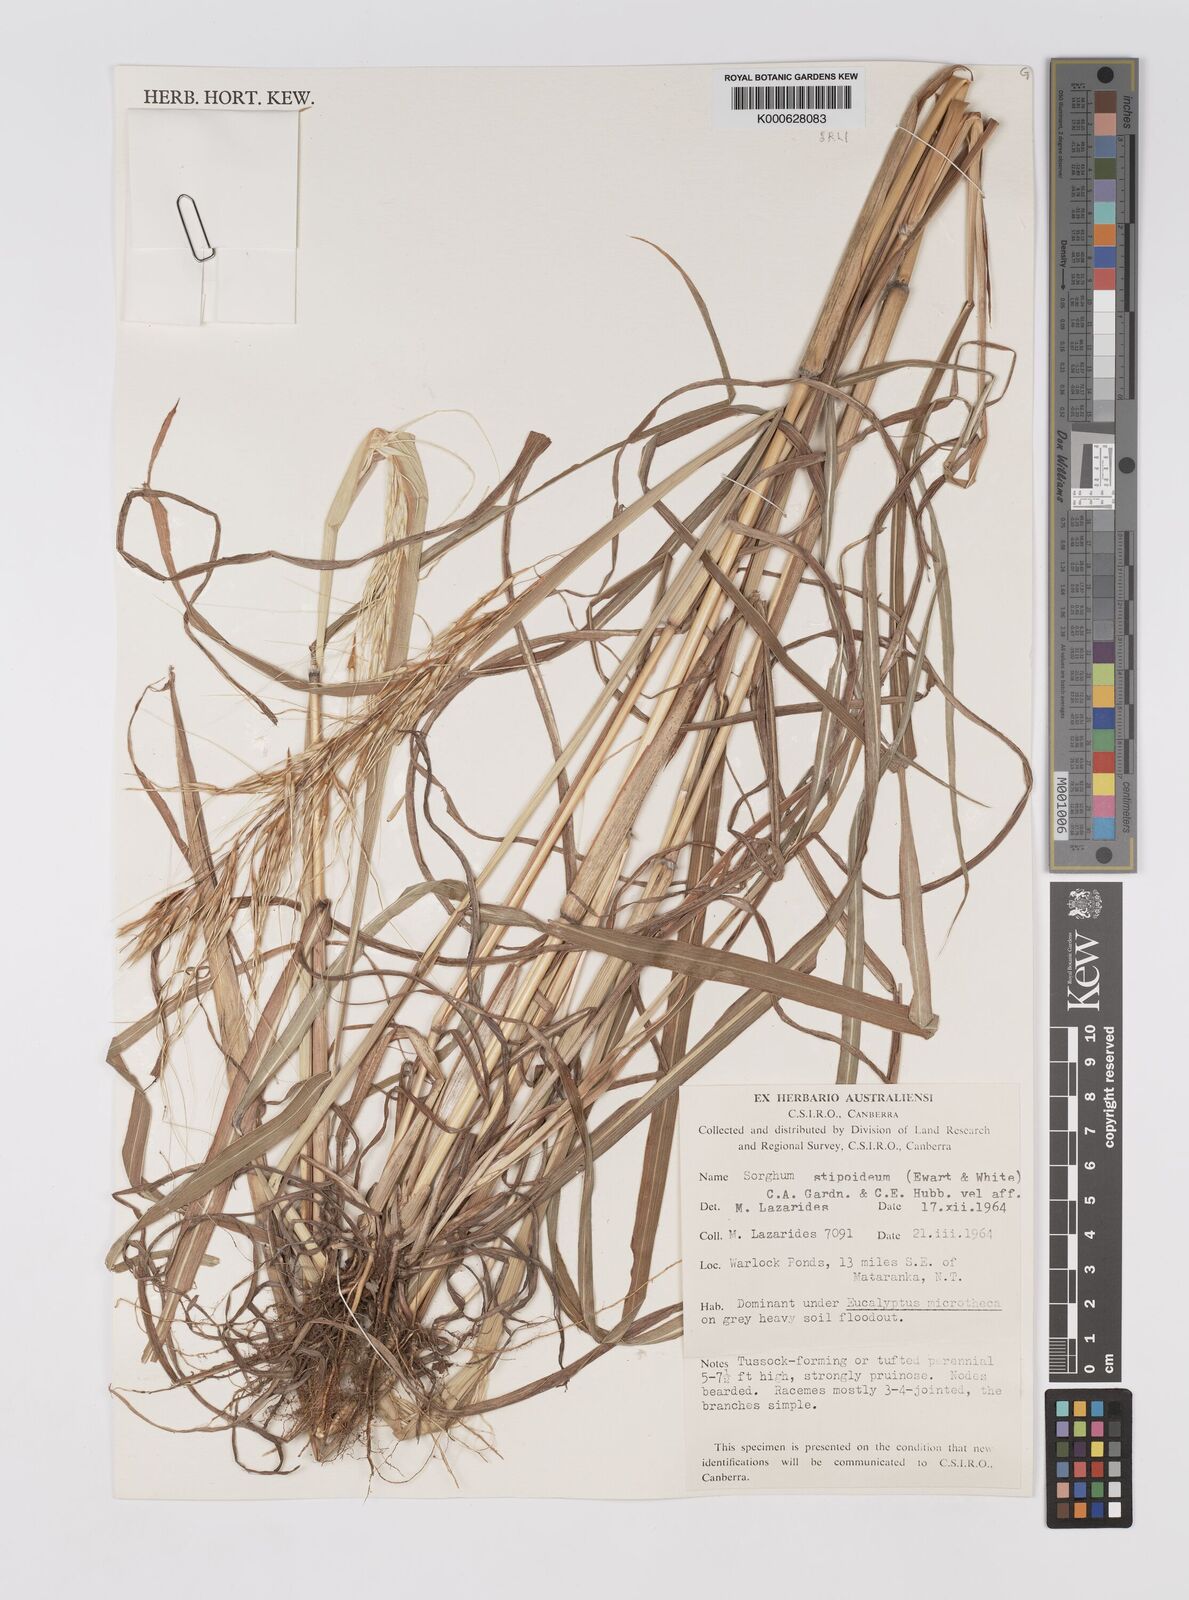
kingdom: Plantae
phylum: Tracheophyta
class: Liliopsida
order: Poales
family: Poaceae
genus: Sarga
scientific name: Sarga stipoidea
